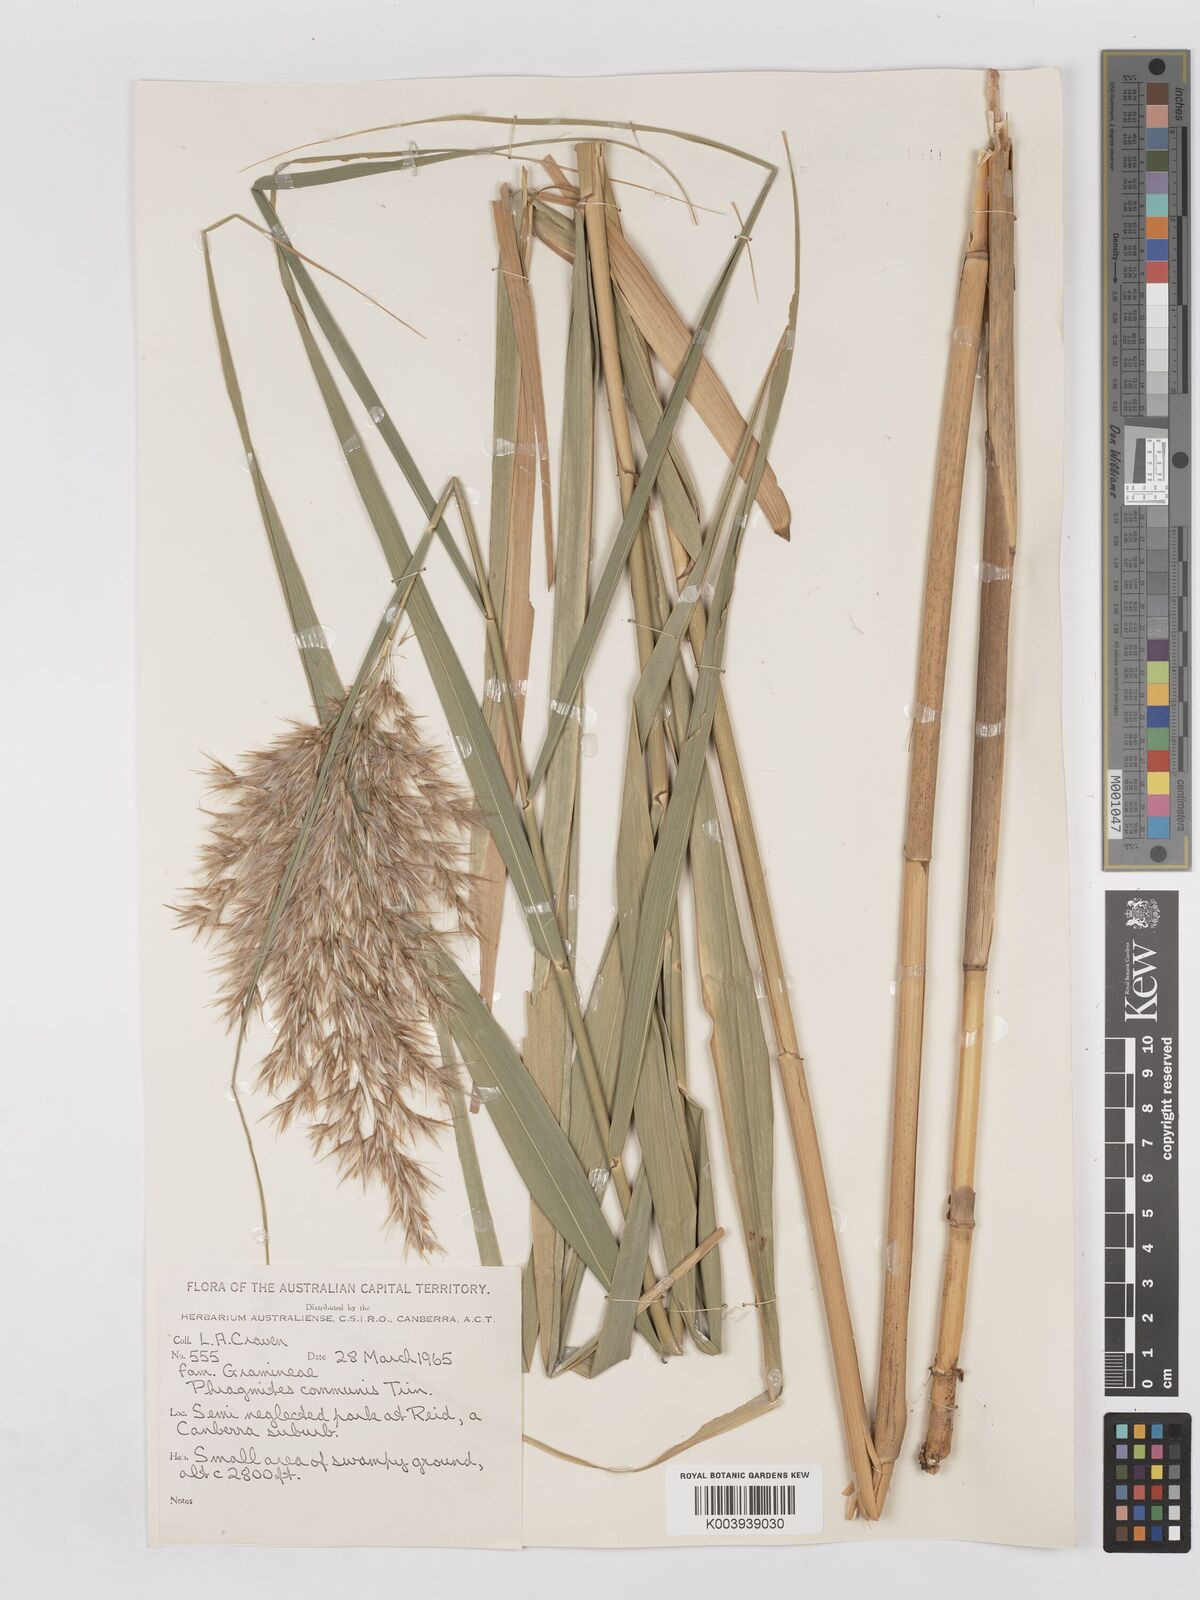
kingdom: Plantae
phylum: Tracheophyta
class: Liliopsida
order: Poales
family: Poaceae
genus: Phragmites
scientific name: Phragmites australis
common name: Common reed
